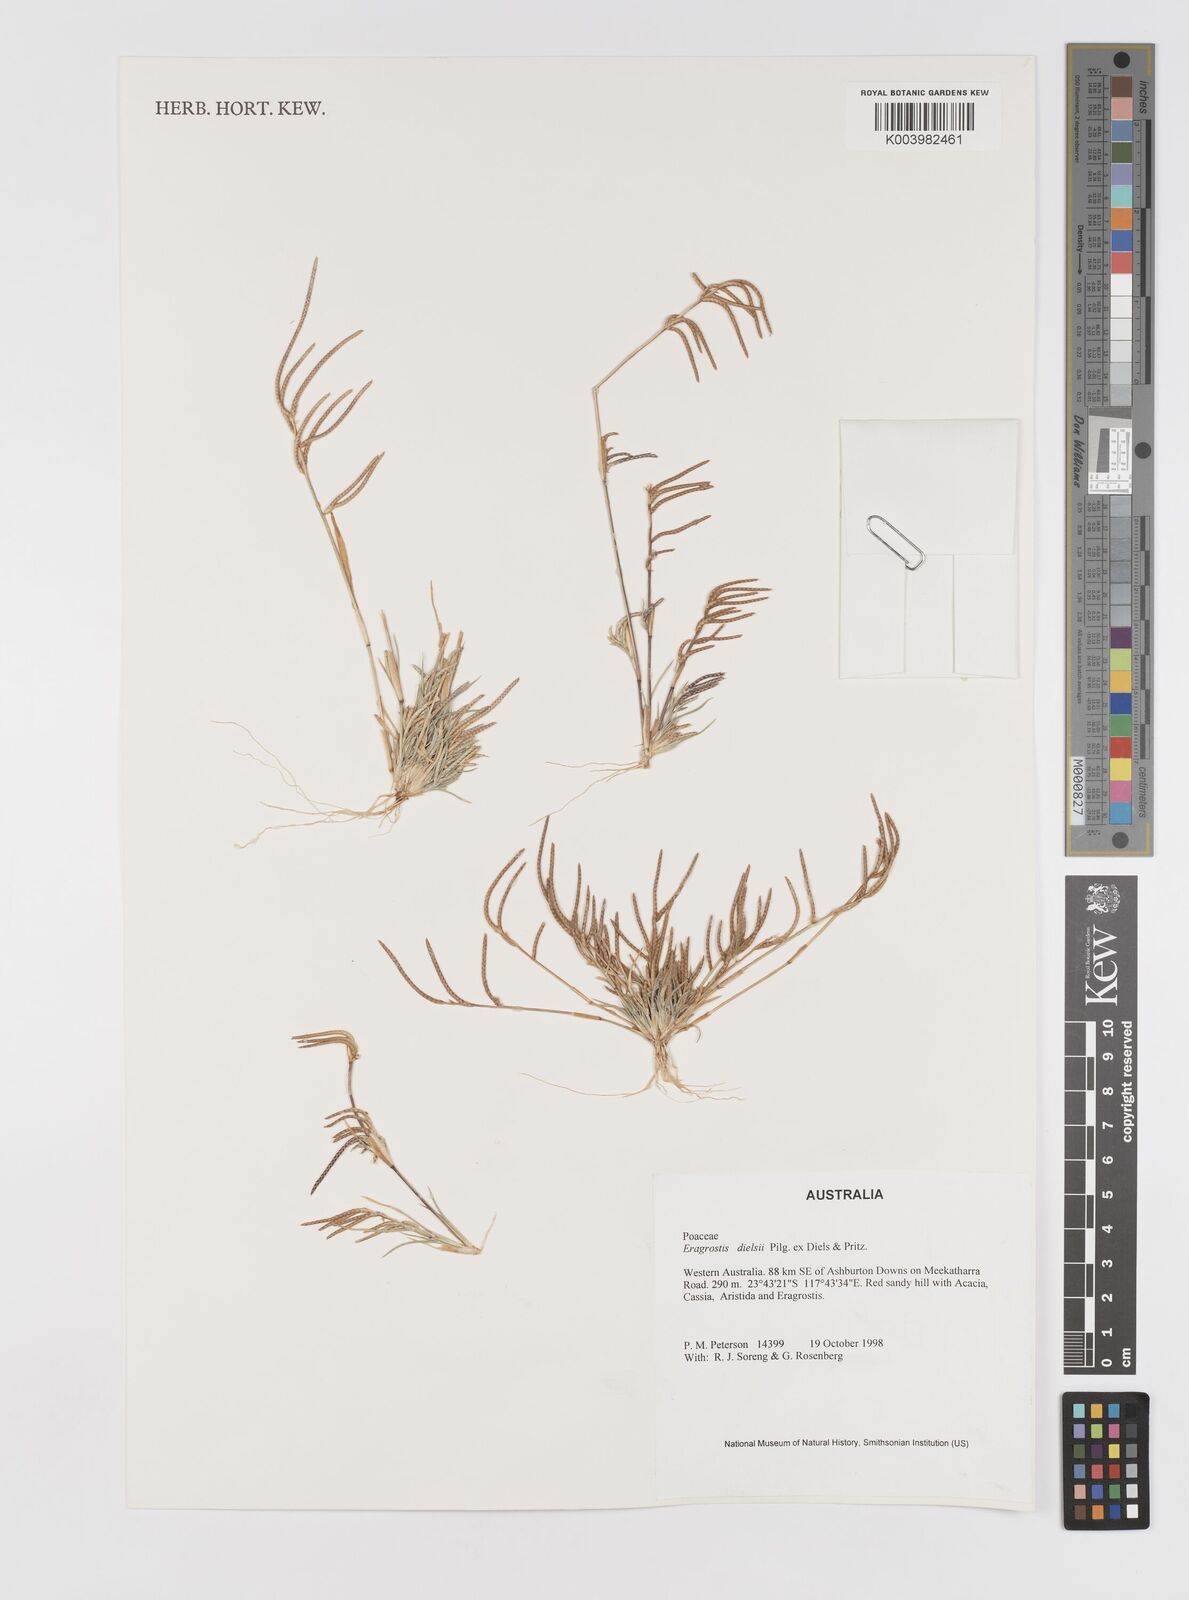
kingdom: Plantae
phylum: Tracheophyta
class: Liliopsida
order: Poales
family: Poaceae
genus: Eragrostis
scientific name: Eragrostis dielsii
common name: Lovegrass
